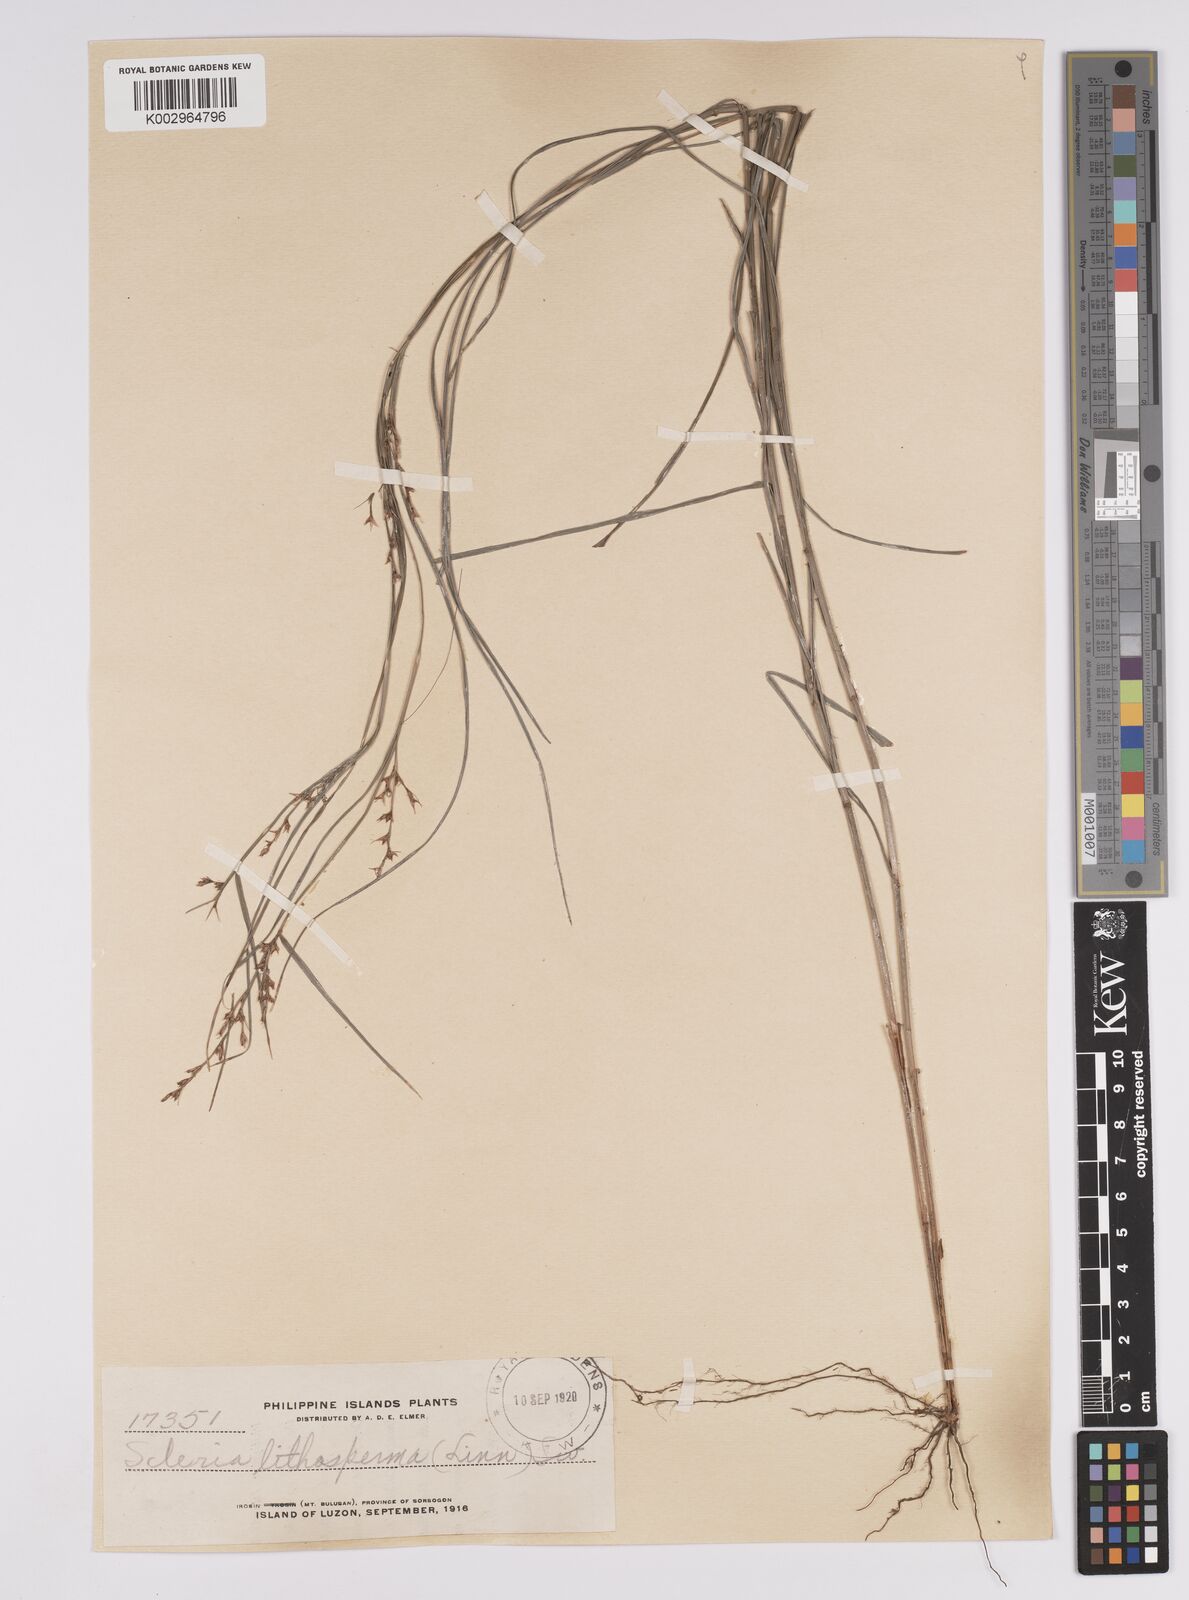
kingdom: Plantae
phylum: Tracheophyta
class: Liliopsida
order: Poales
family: Cyperaceae
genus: Scleria
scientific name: Scleria lithosperma
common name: Florida keys nut-rush
